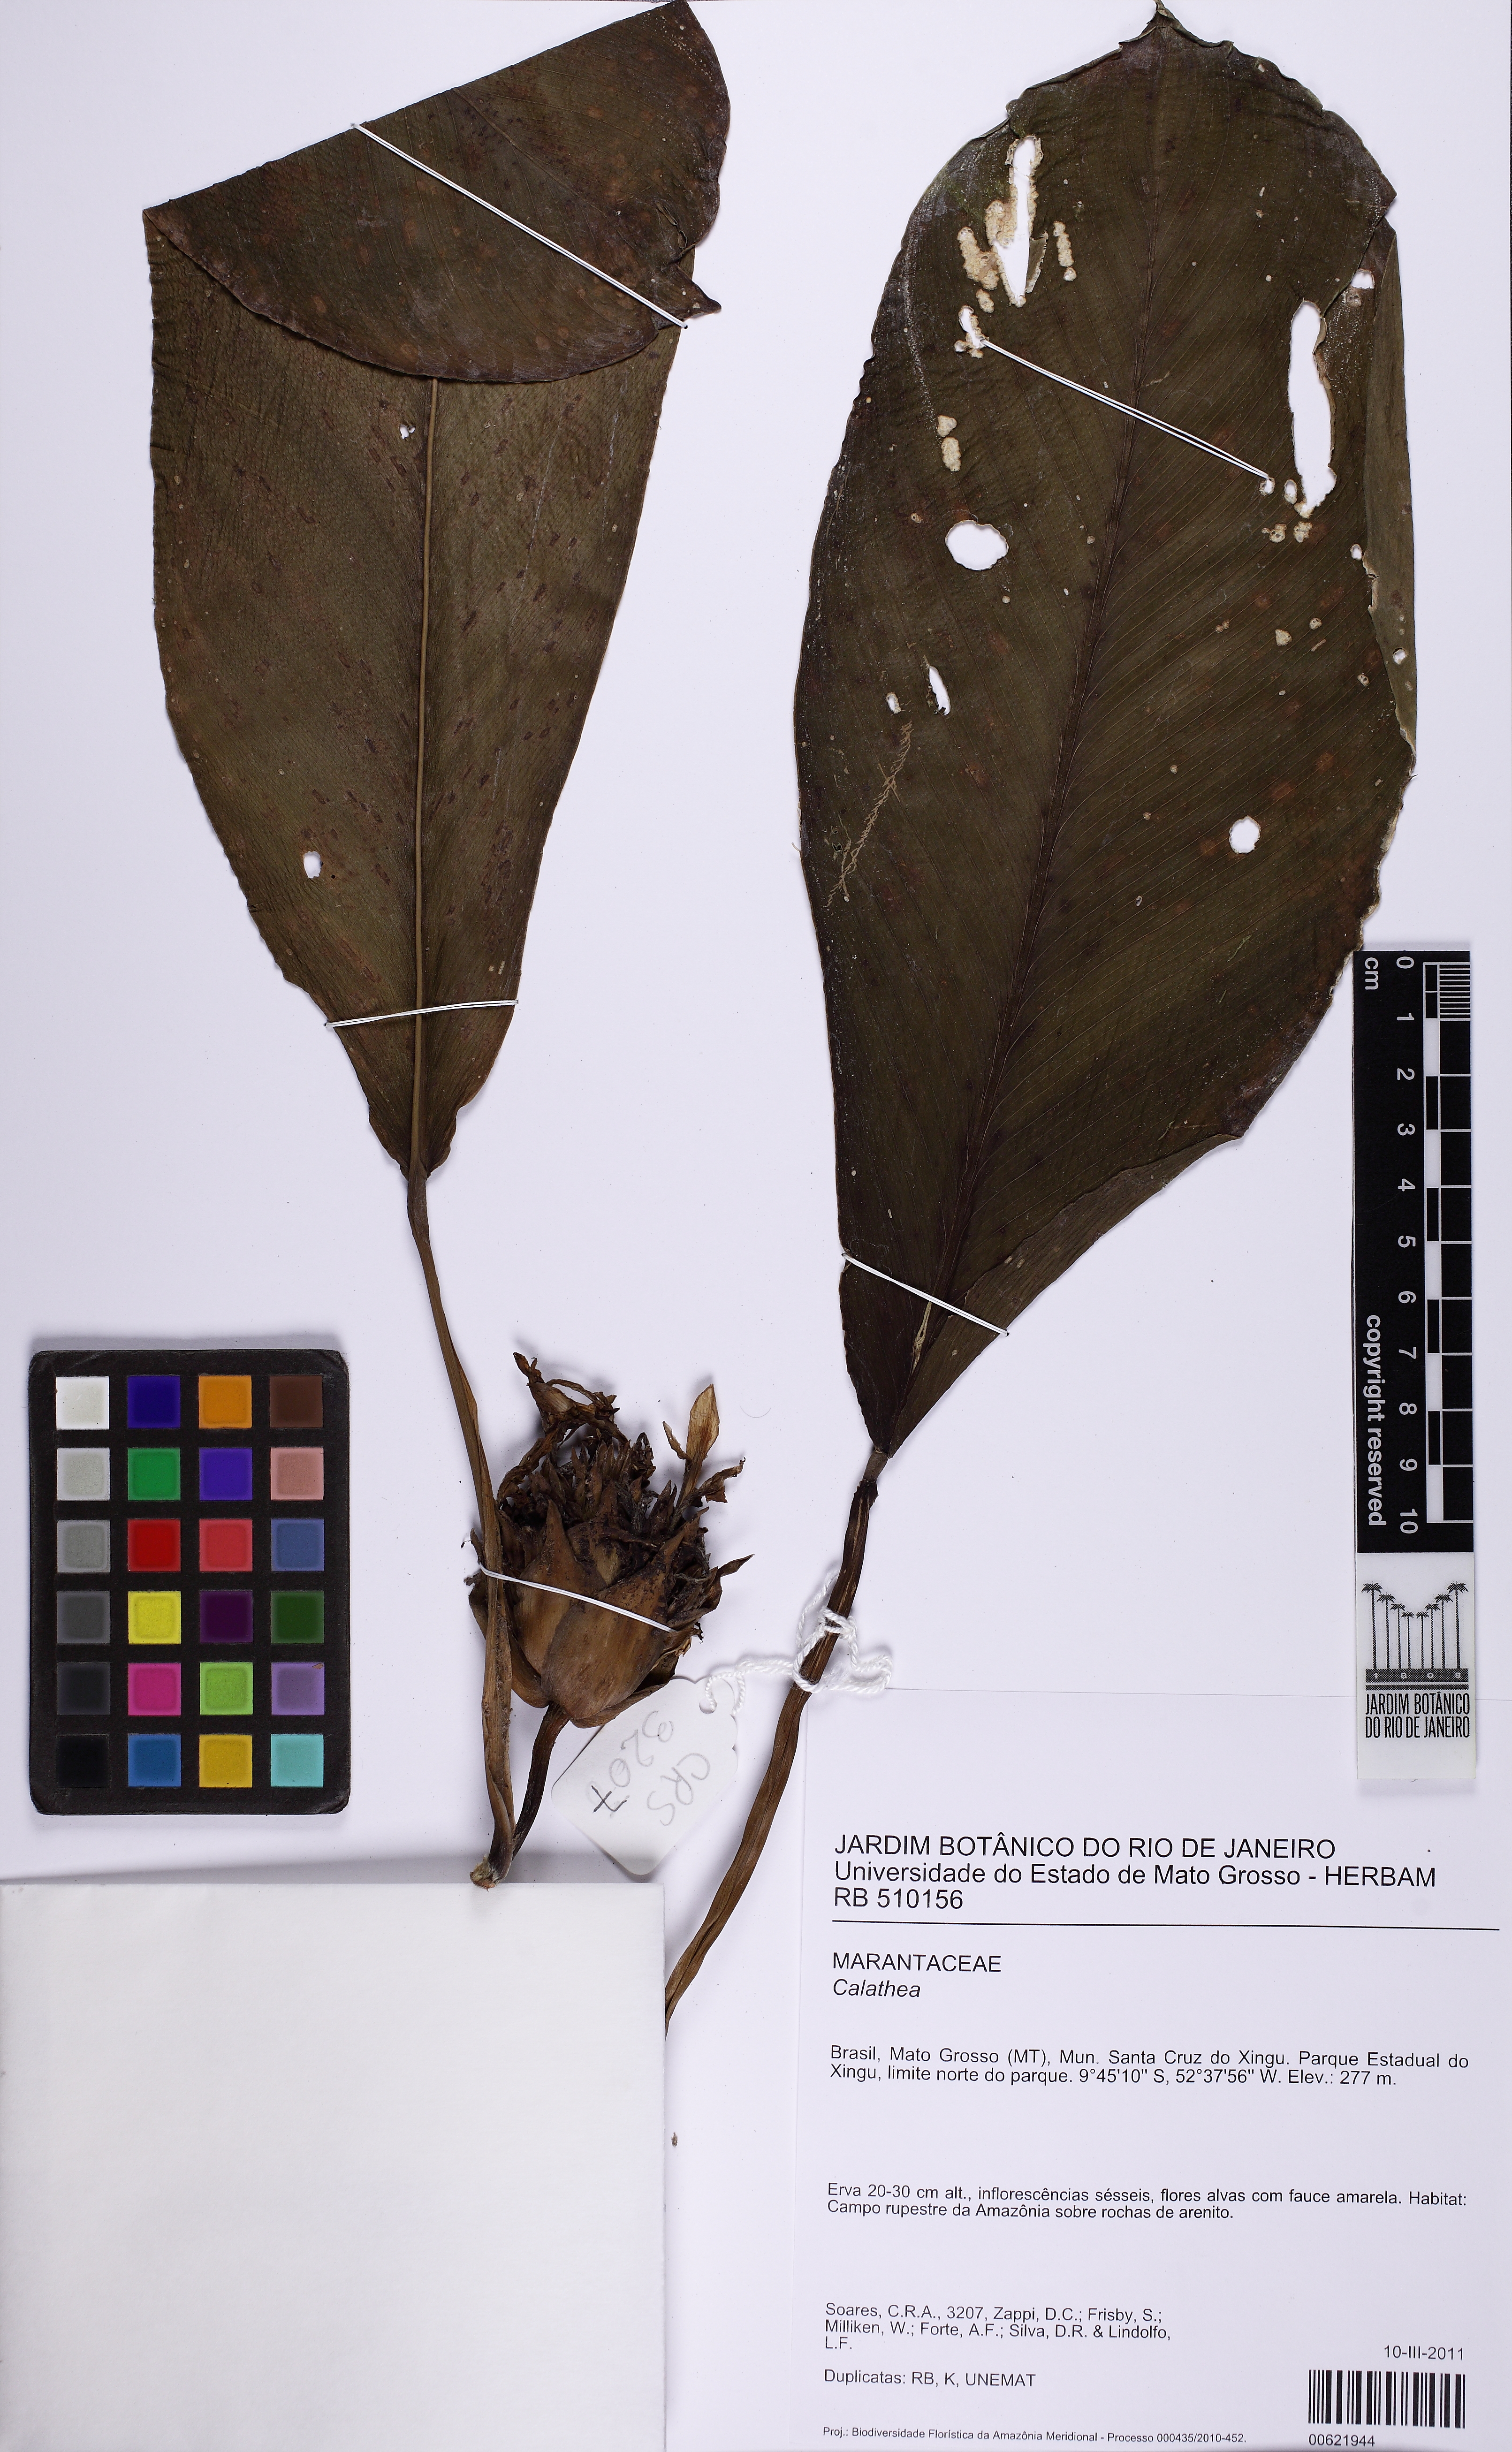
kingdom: Plantae
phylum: Tracheophyta
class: Liliopsida
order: Zingiberales
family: Marantaceae
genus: Calathea
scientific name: Calathea
